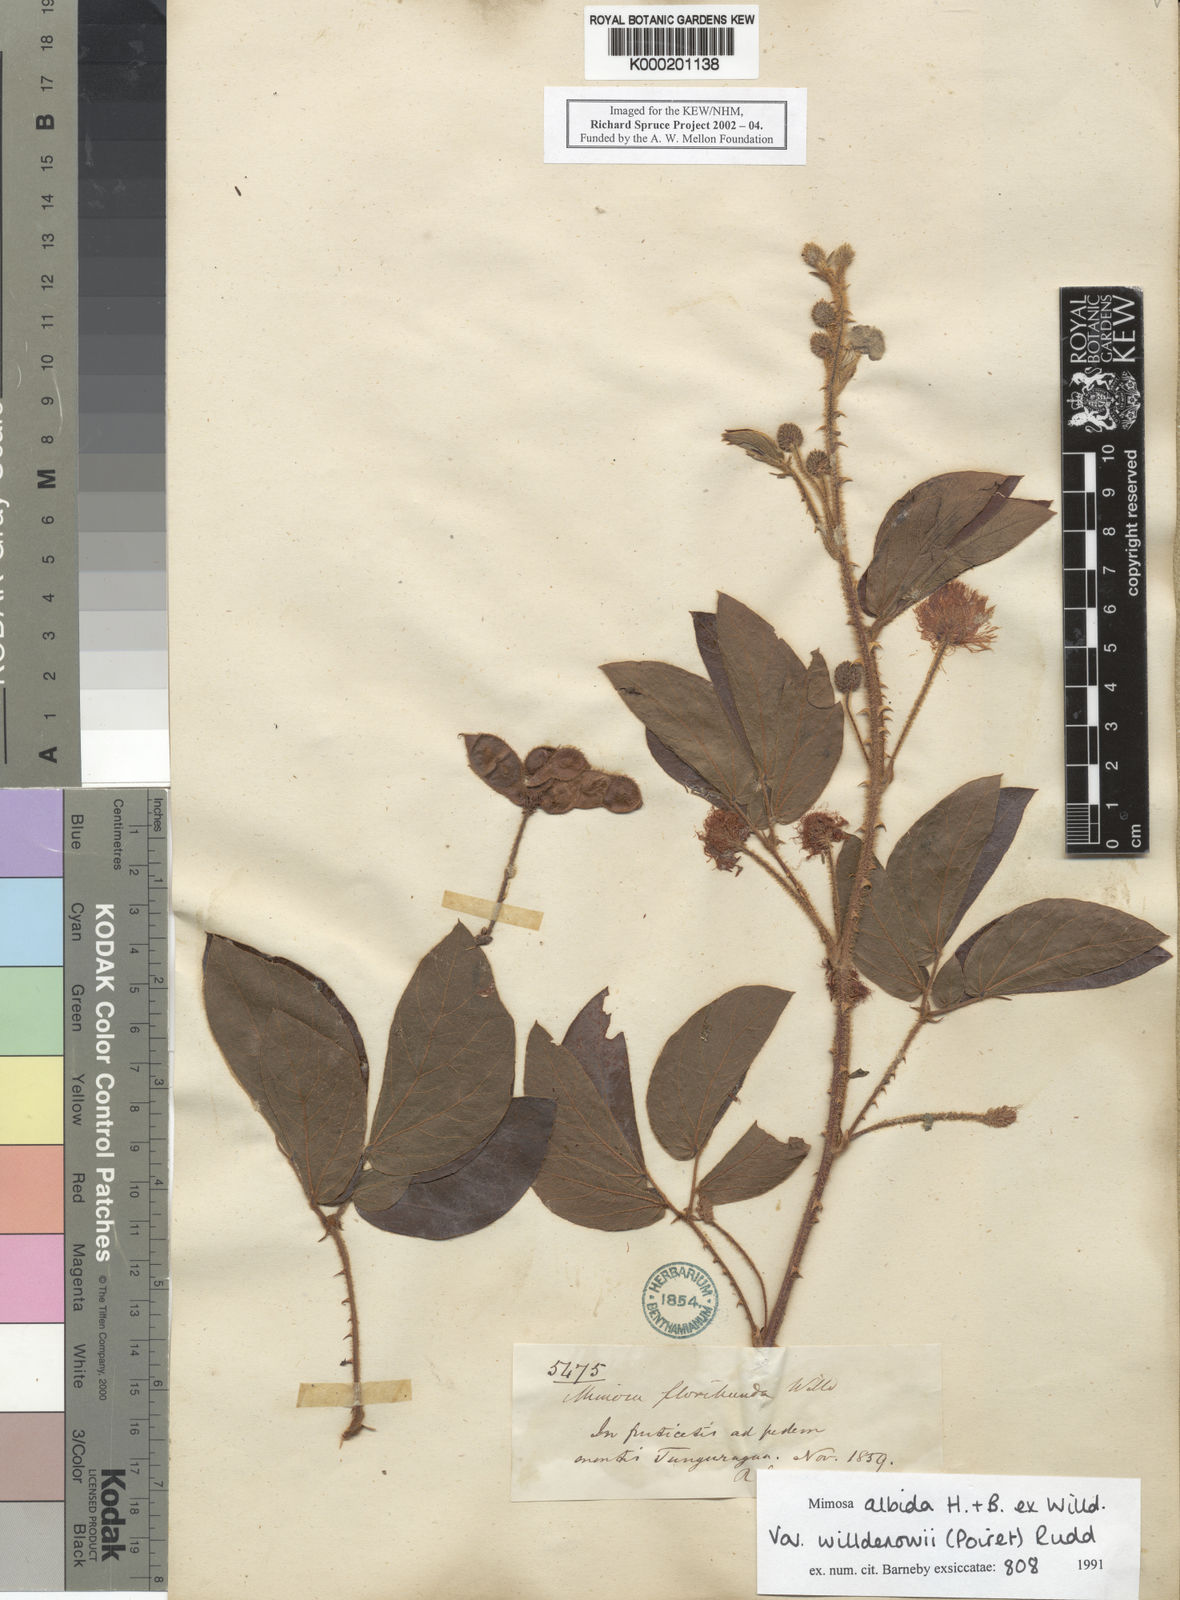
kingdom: Plantae
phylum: Tracheophyta
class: Magnoliopsida
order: Fabales
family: Fabaceae
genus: Mimosa
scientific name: Mimosa albida
